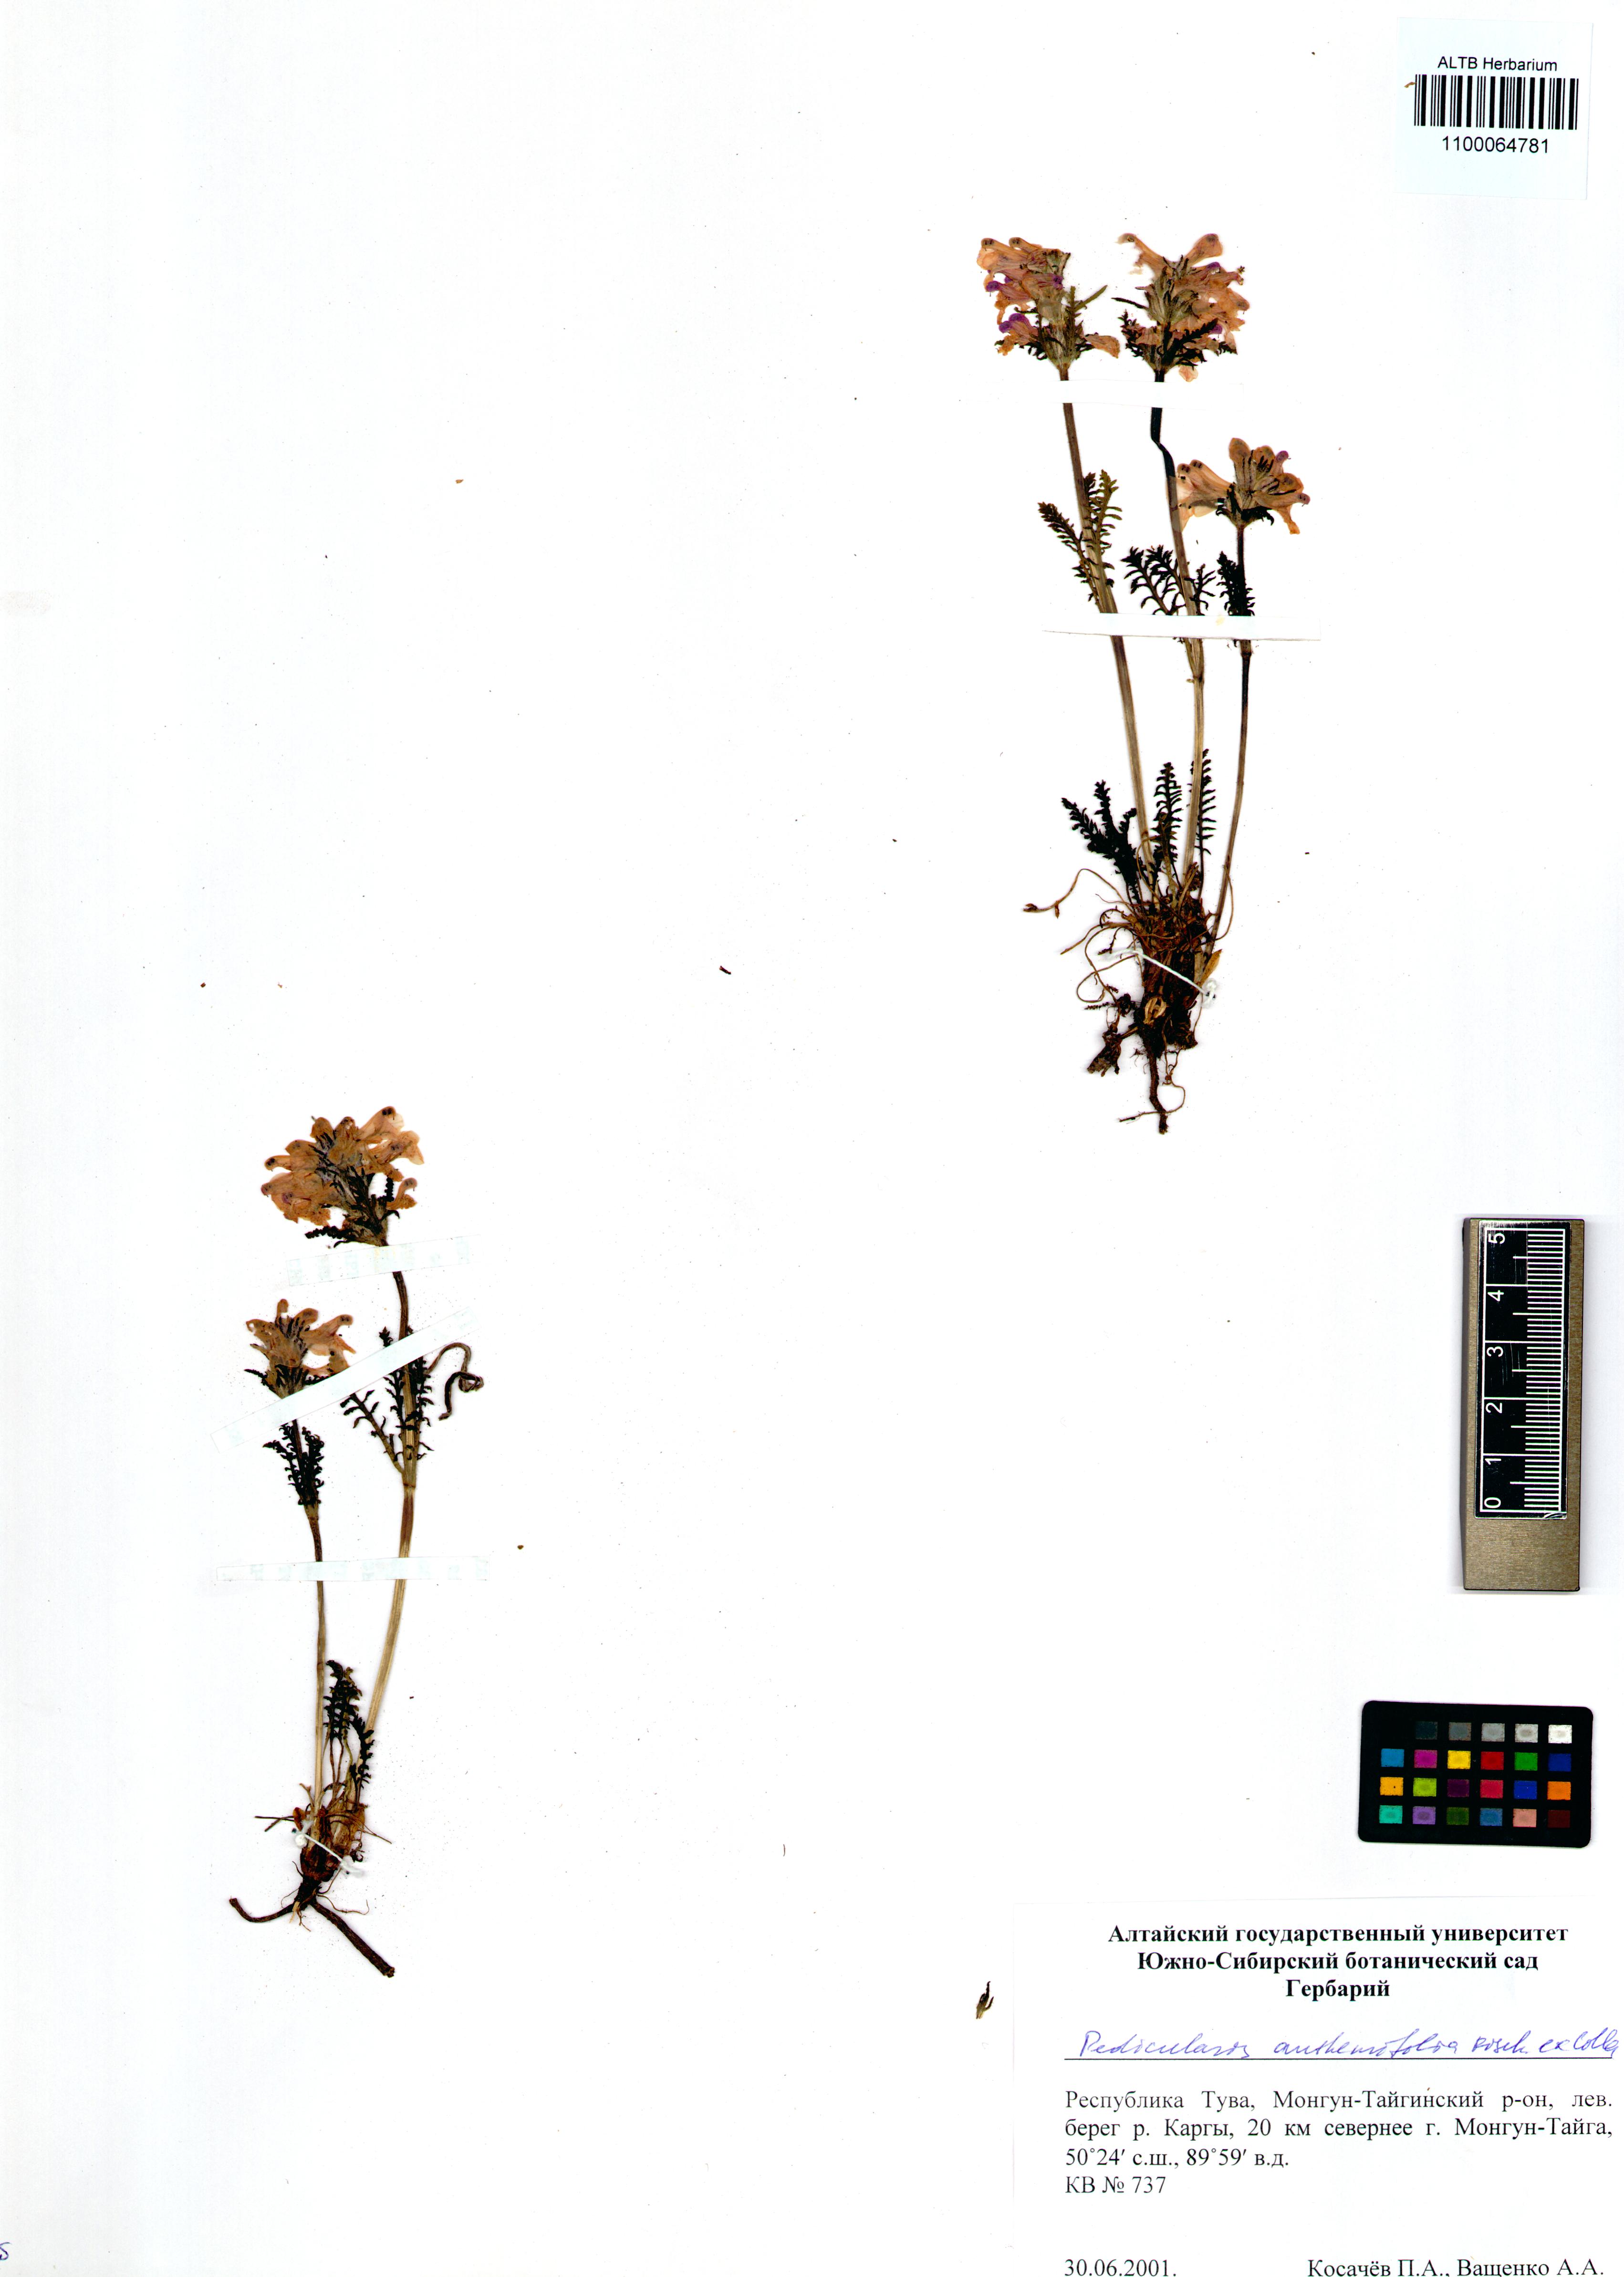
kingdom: Plantae
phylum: Tracheophyta
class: Magnoliopsida
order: Lamiales
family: Orobanchaceae
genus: Pedicularis
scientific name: Pedicularis anthemifolia
